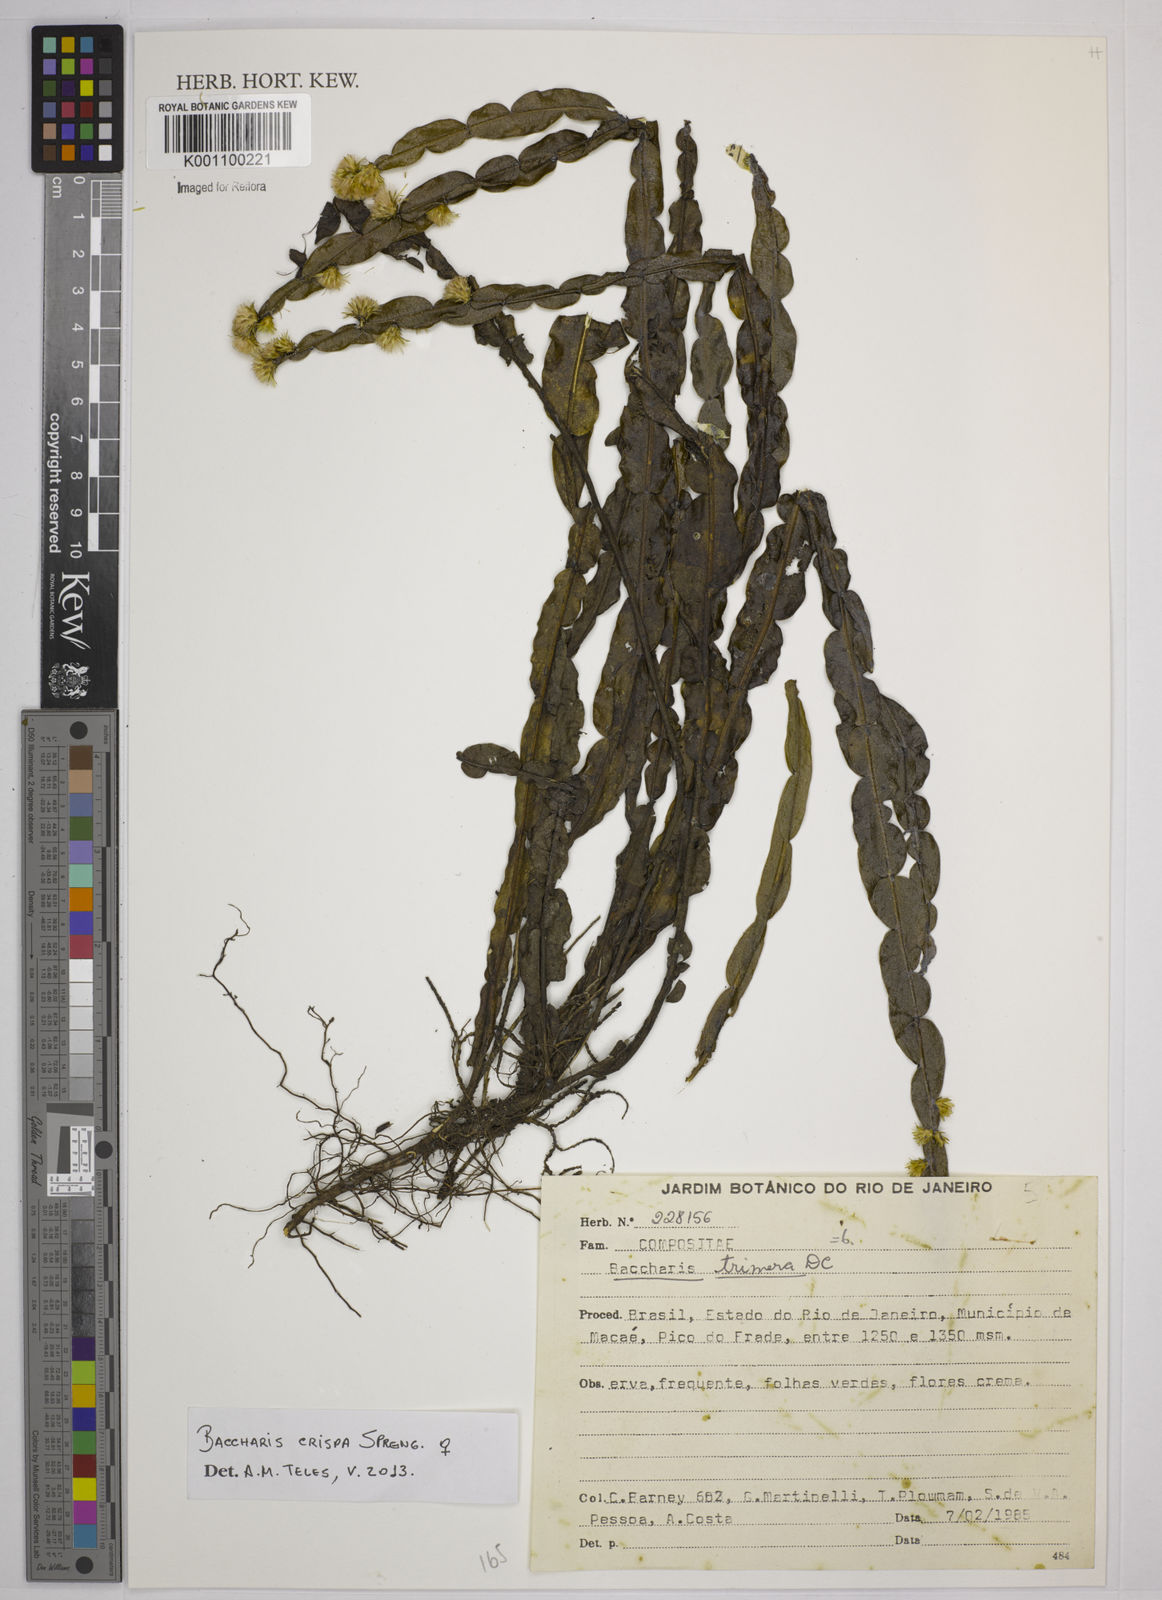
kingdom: Plantae
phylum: Tracheophyta
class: Magnoliopsida
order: Asterales
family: Asteraceae
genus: Baccharis
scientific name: Baccharis
